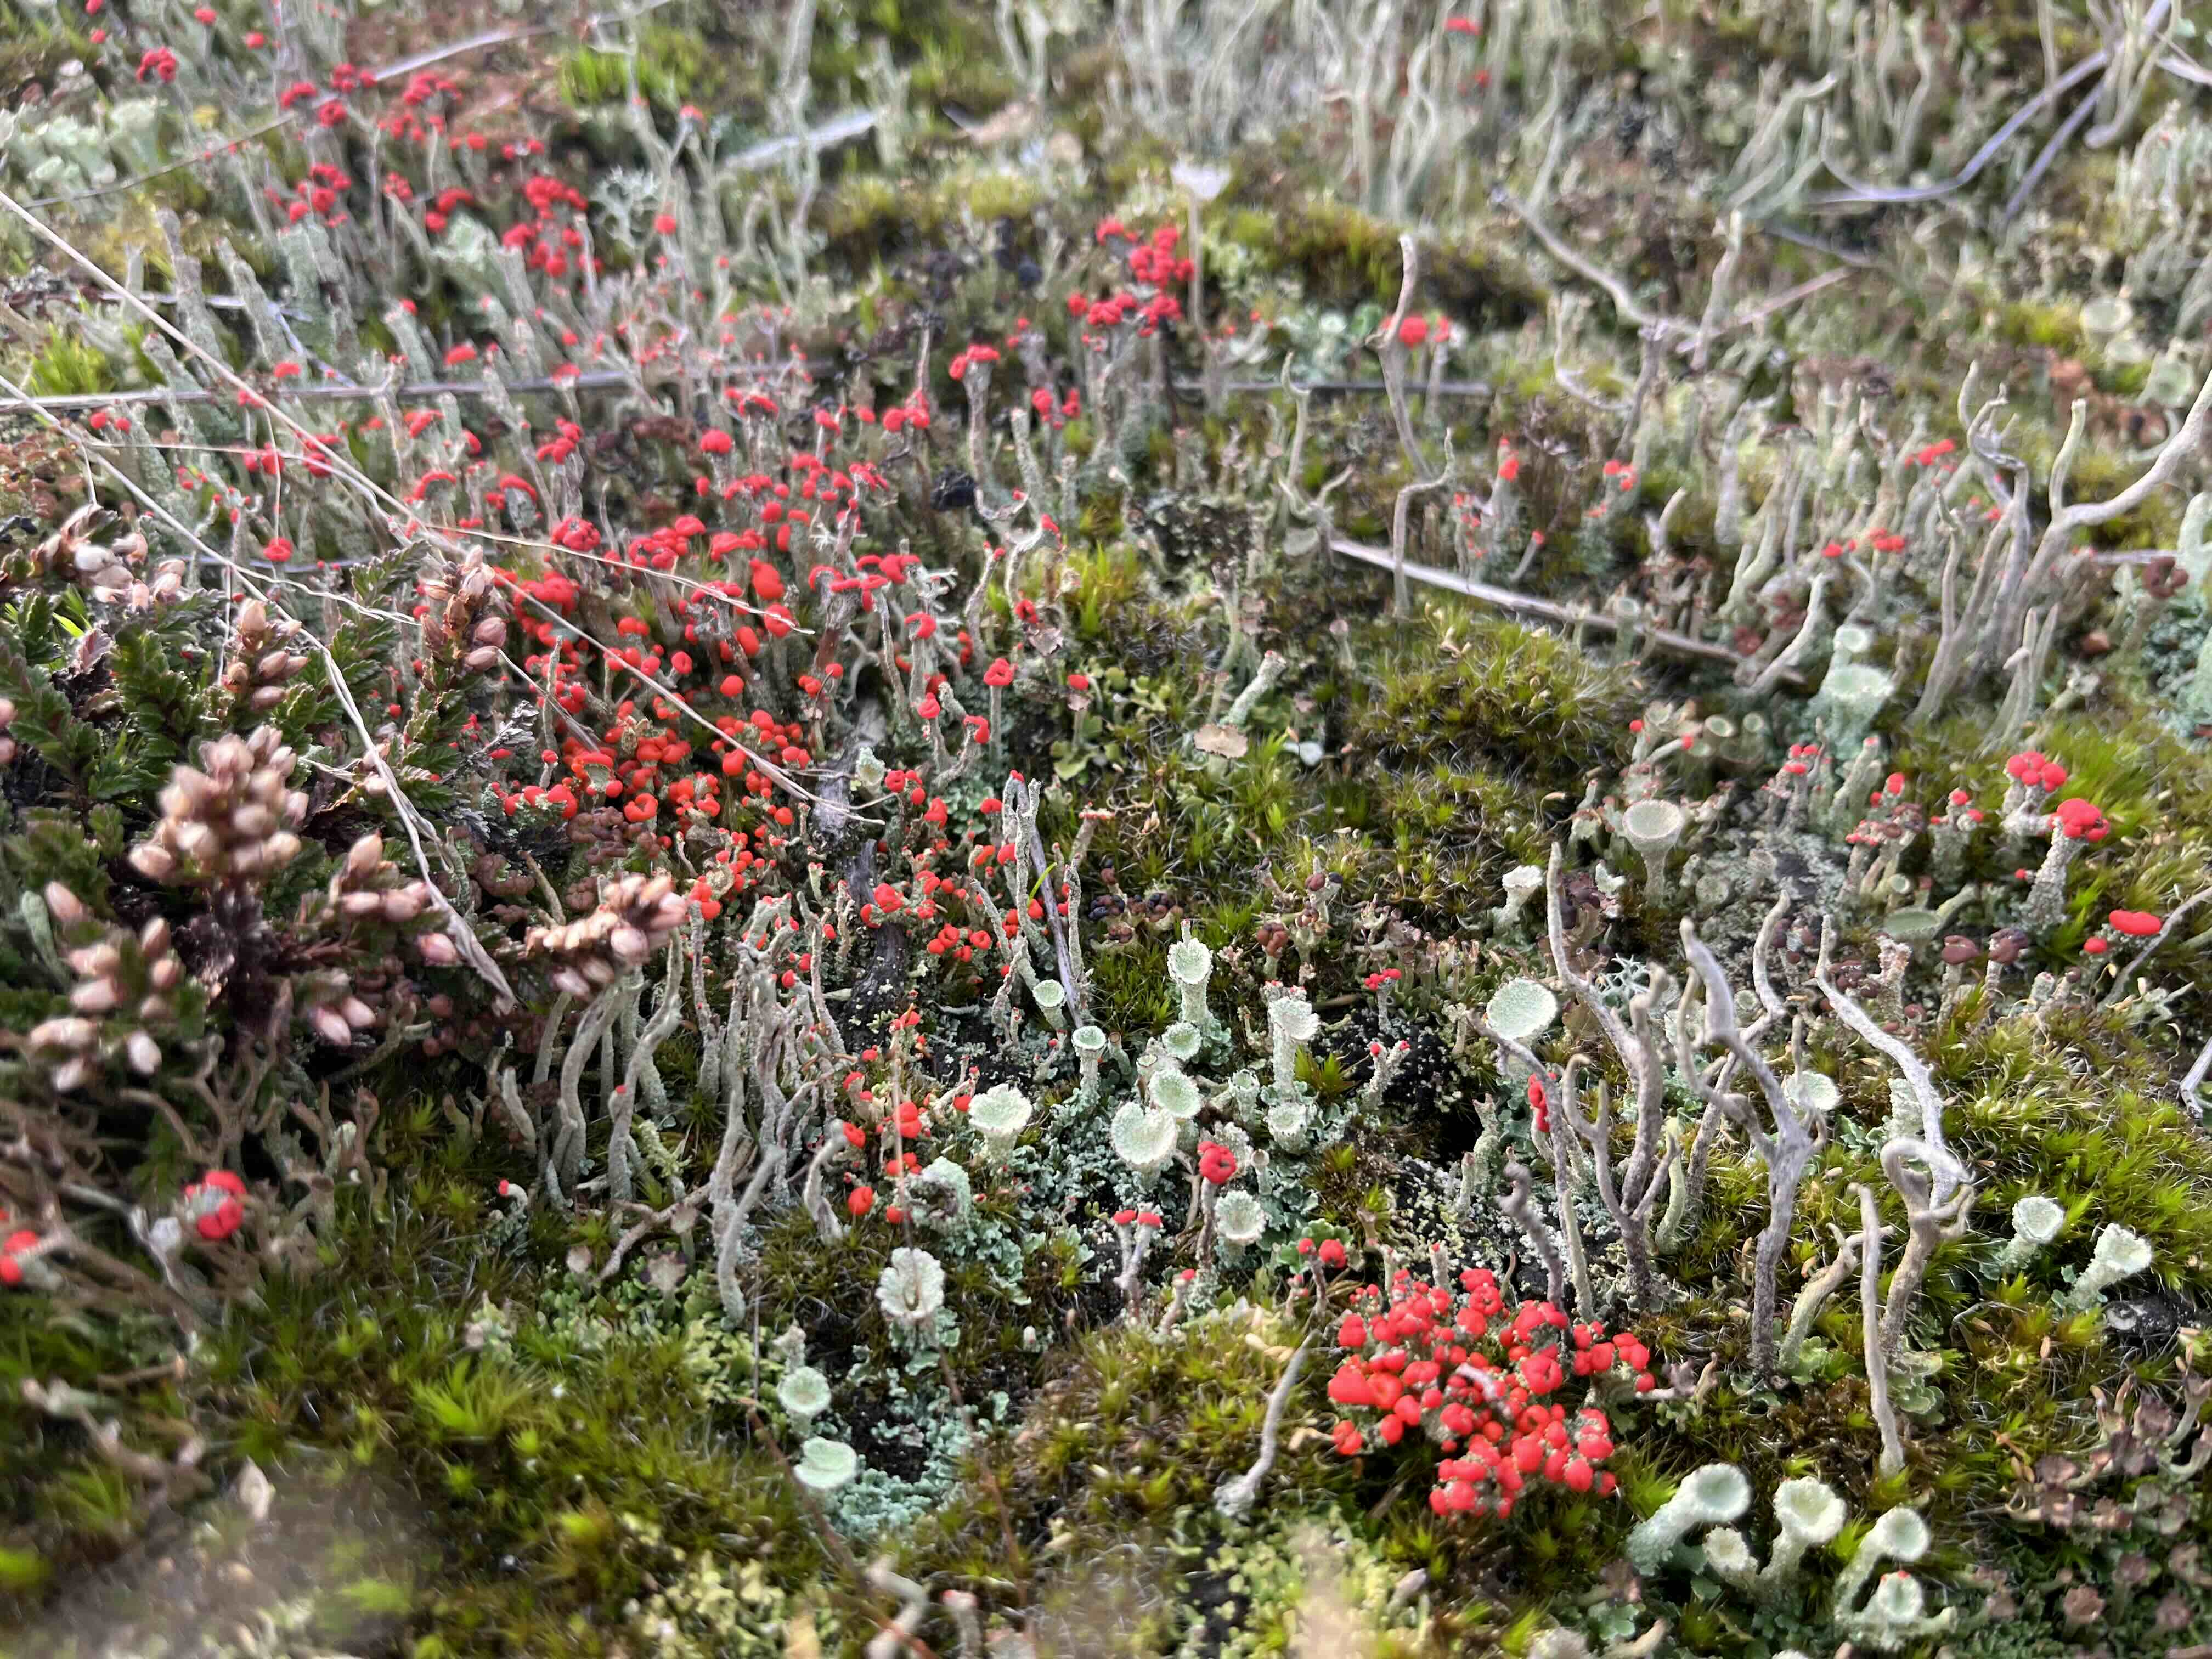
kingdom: Fungi
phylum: Ascomycota
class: Lecanoromycetes
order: Lecanorales
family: Cladoniaceae
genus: Cladonia
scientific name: Cladonia floerkeana
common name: lakrød bægerlav
